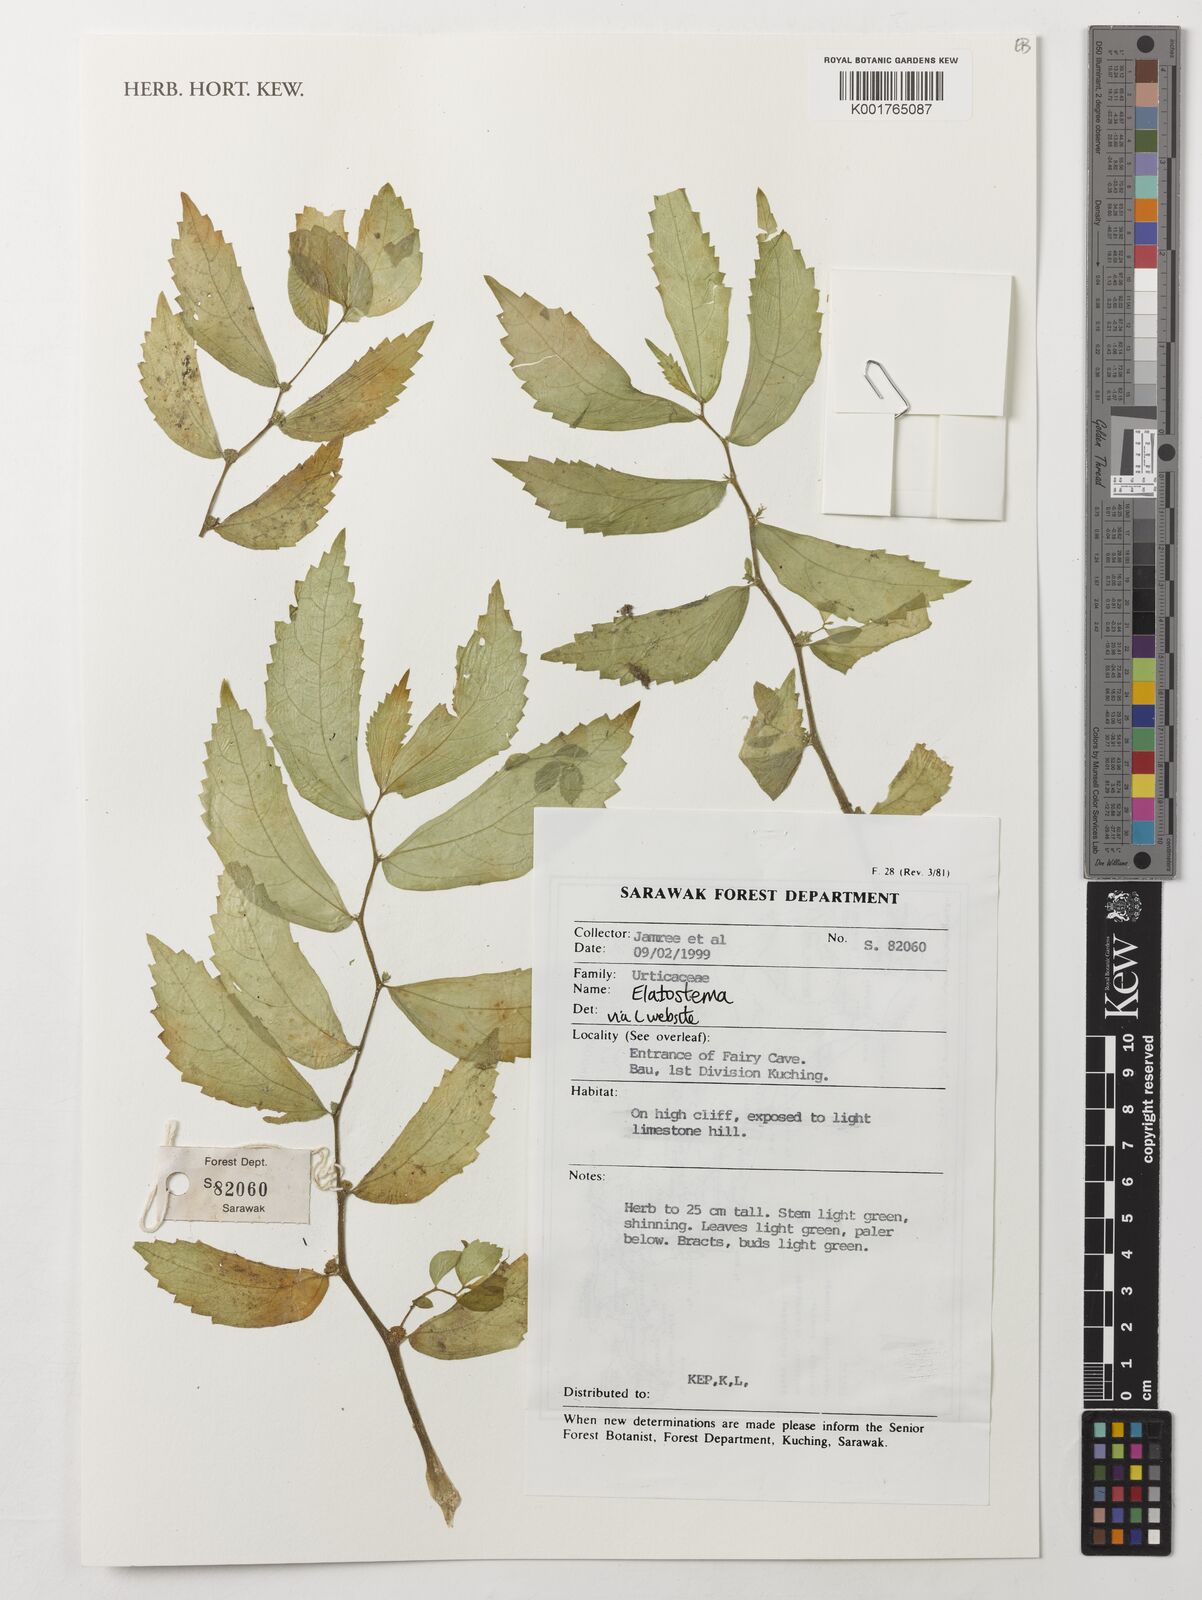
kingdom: Plantae
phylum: Tracheophyta
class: Magnoliopsida
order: Rosales
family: Urticaceae
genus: Elatostema
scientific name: Elatostema
